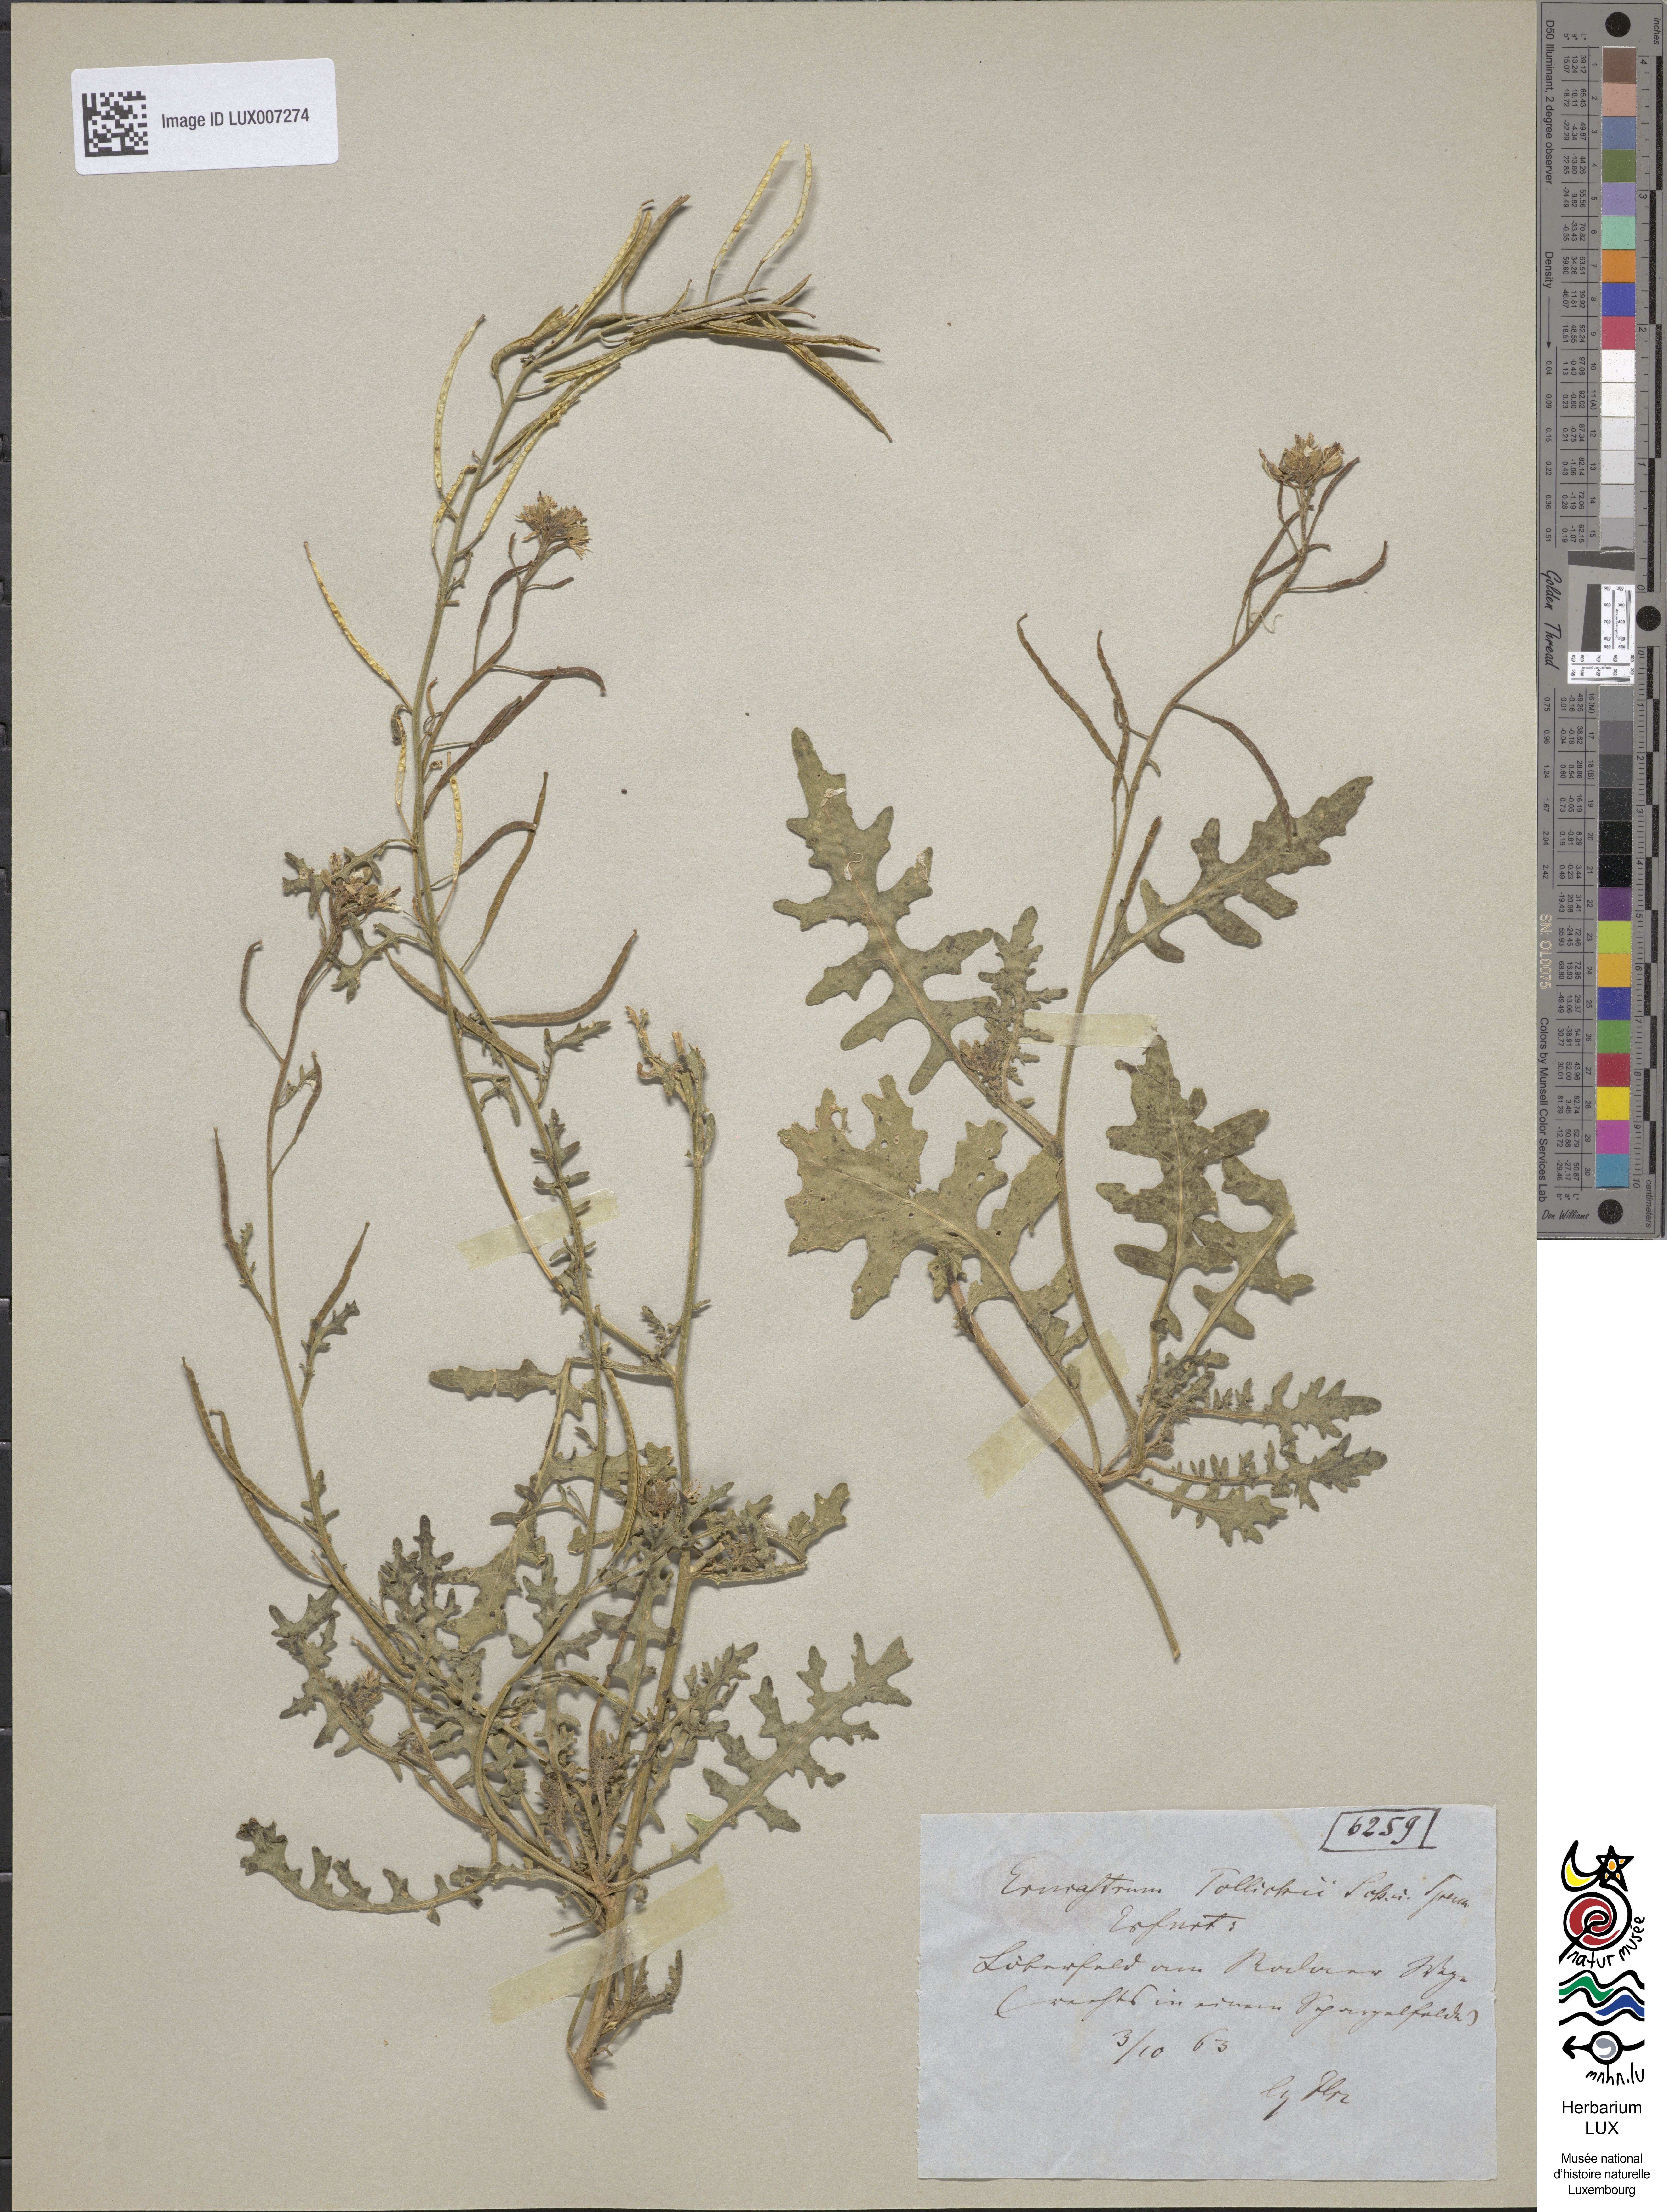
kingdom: Plantae
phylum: Tracheophyta
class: Magnoliopsida
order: Brassicales
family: Brassicaceae
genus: Erucastrum
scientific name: Erucastrum gallicum
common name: Hairy rocket
